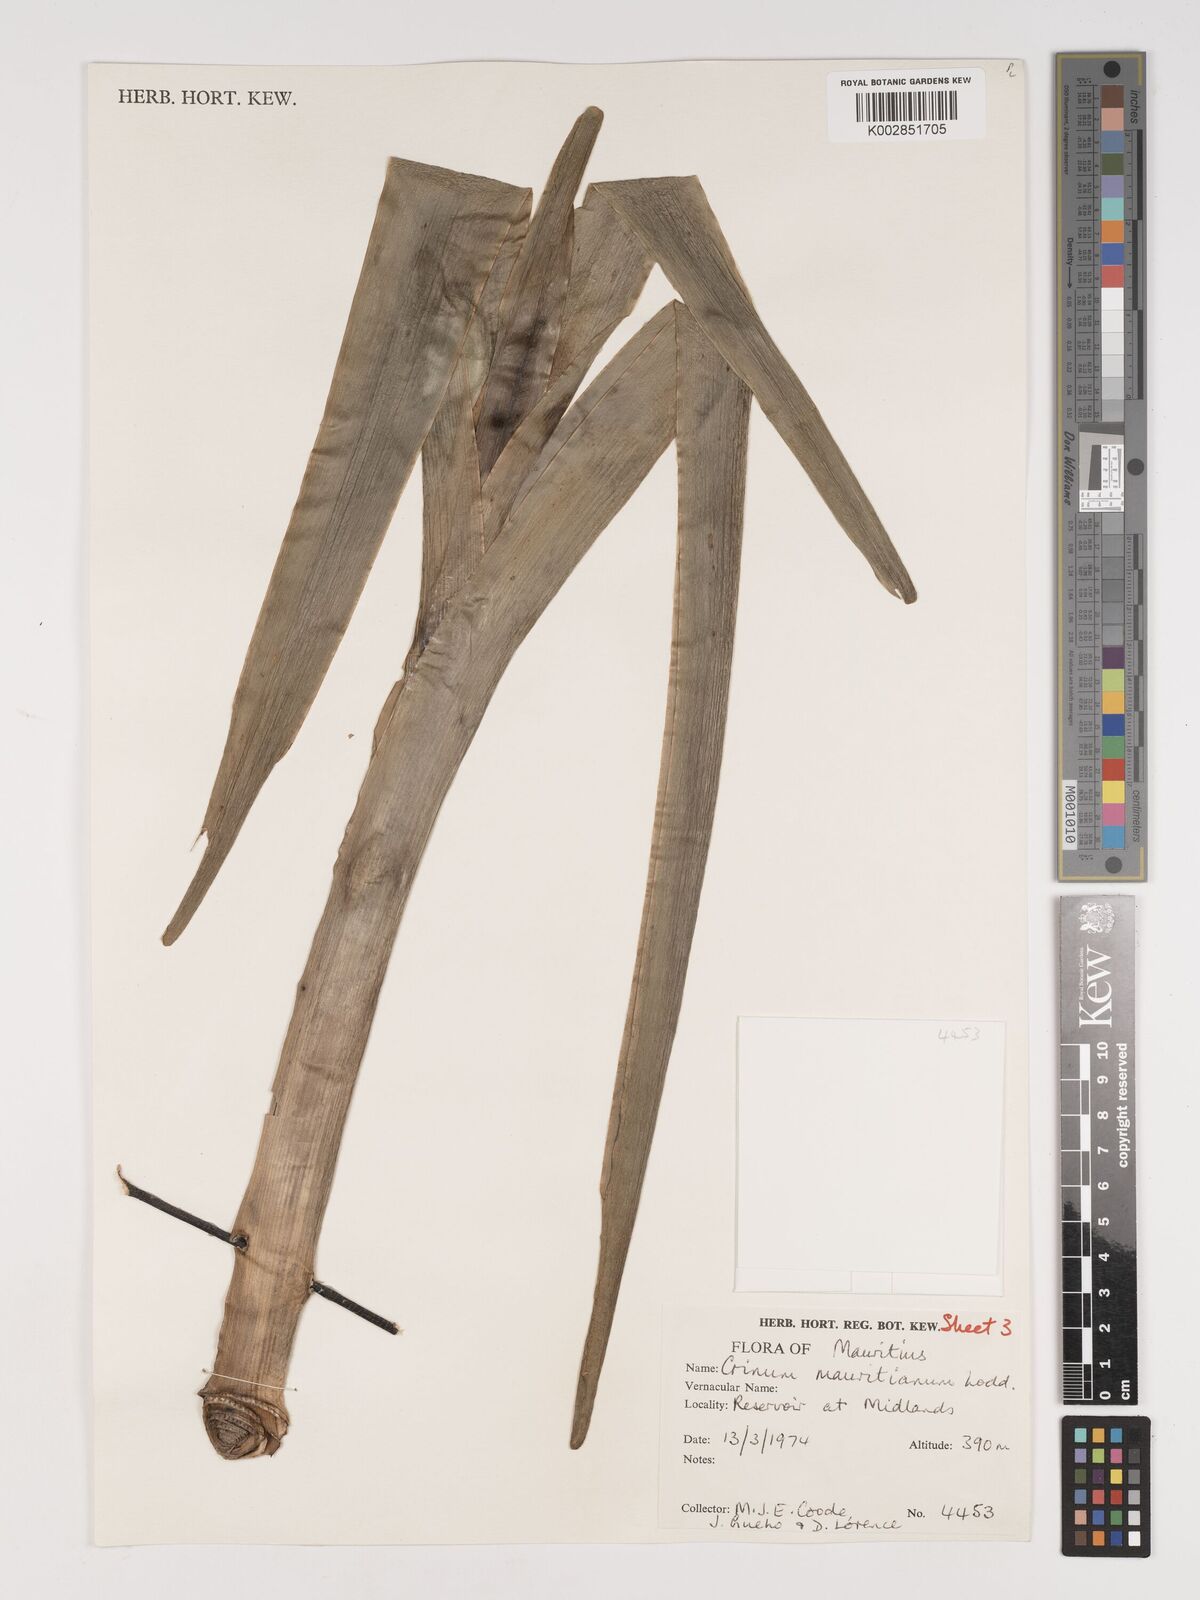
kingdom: Plantae
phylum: Tracheophyta
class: Liliopsida
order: Asparagales
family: Amaryllidaceae
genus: Crinum
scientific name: Crinum mauritianum
